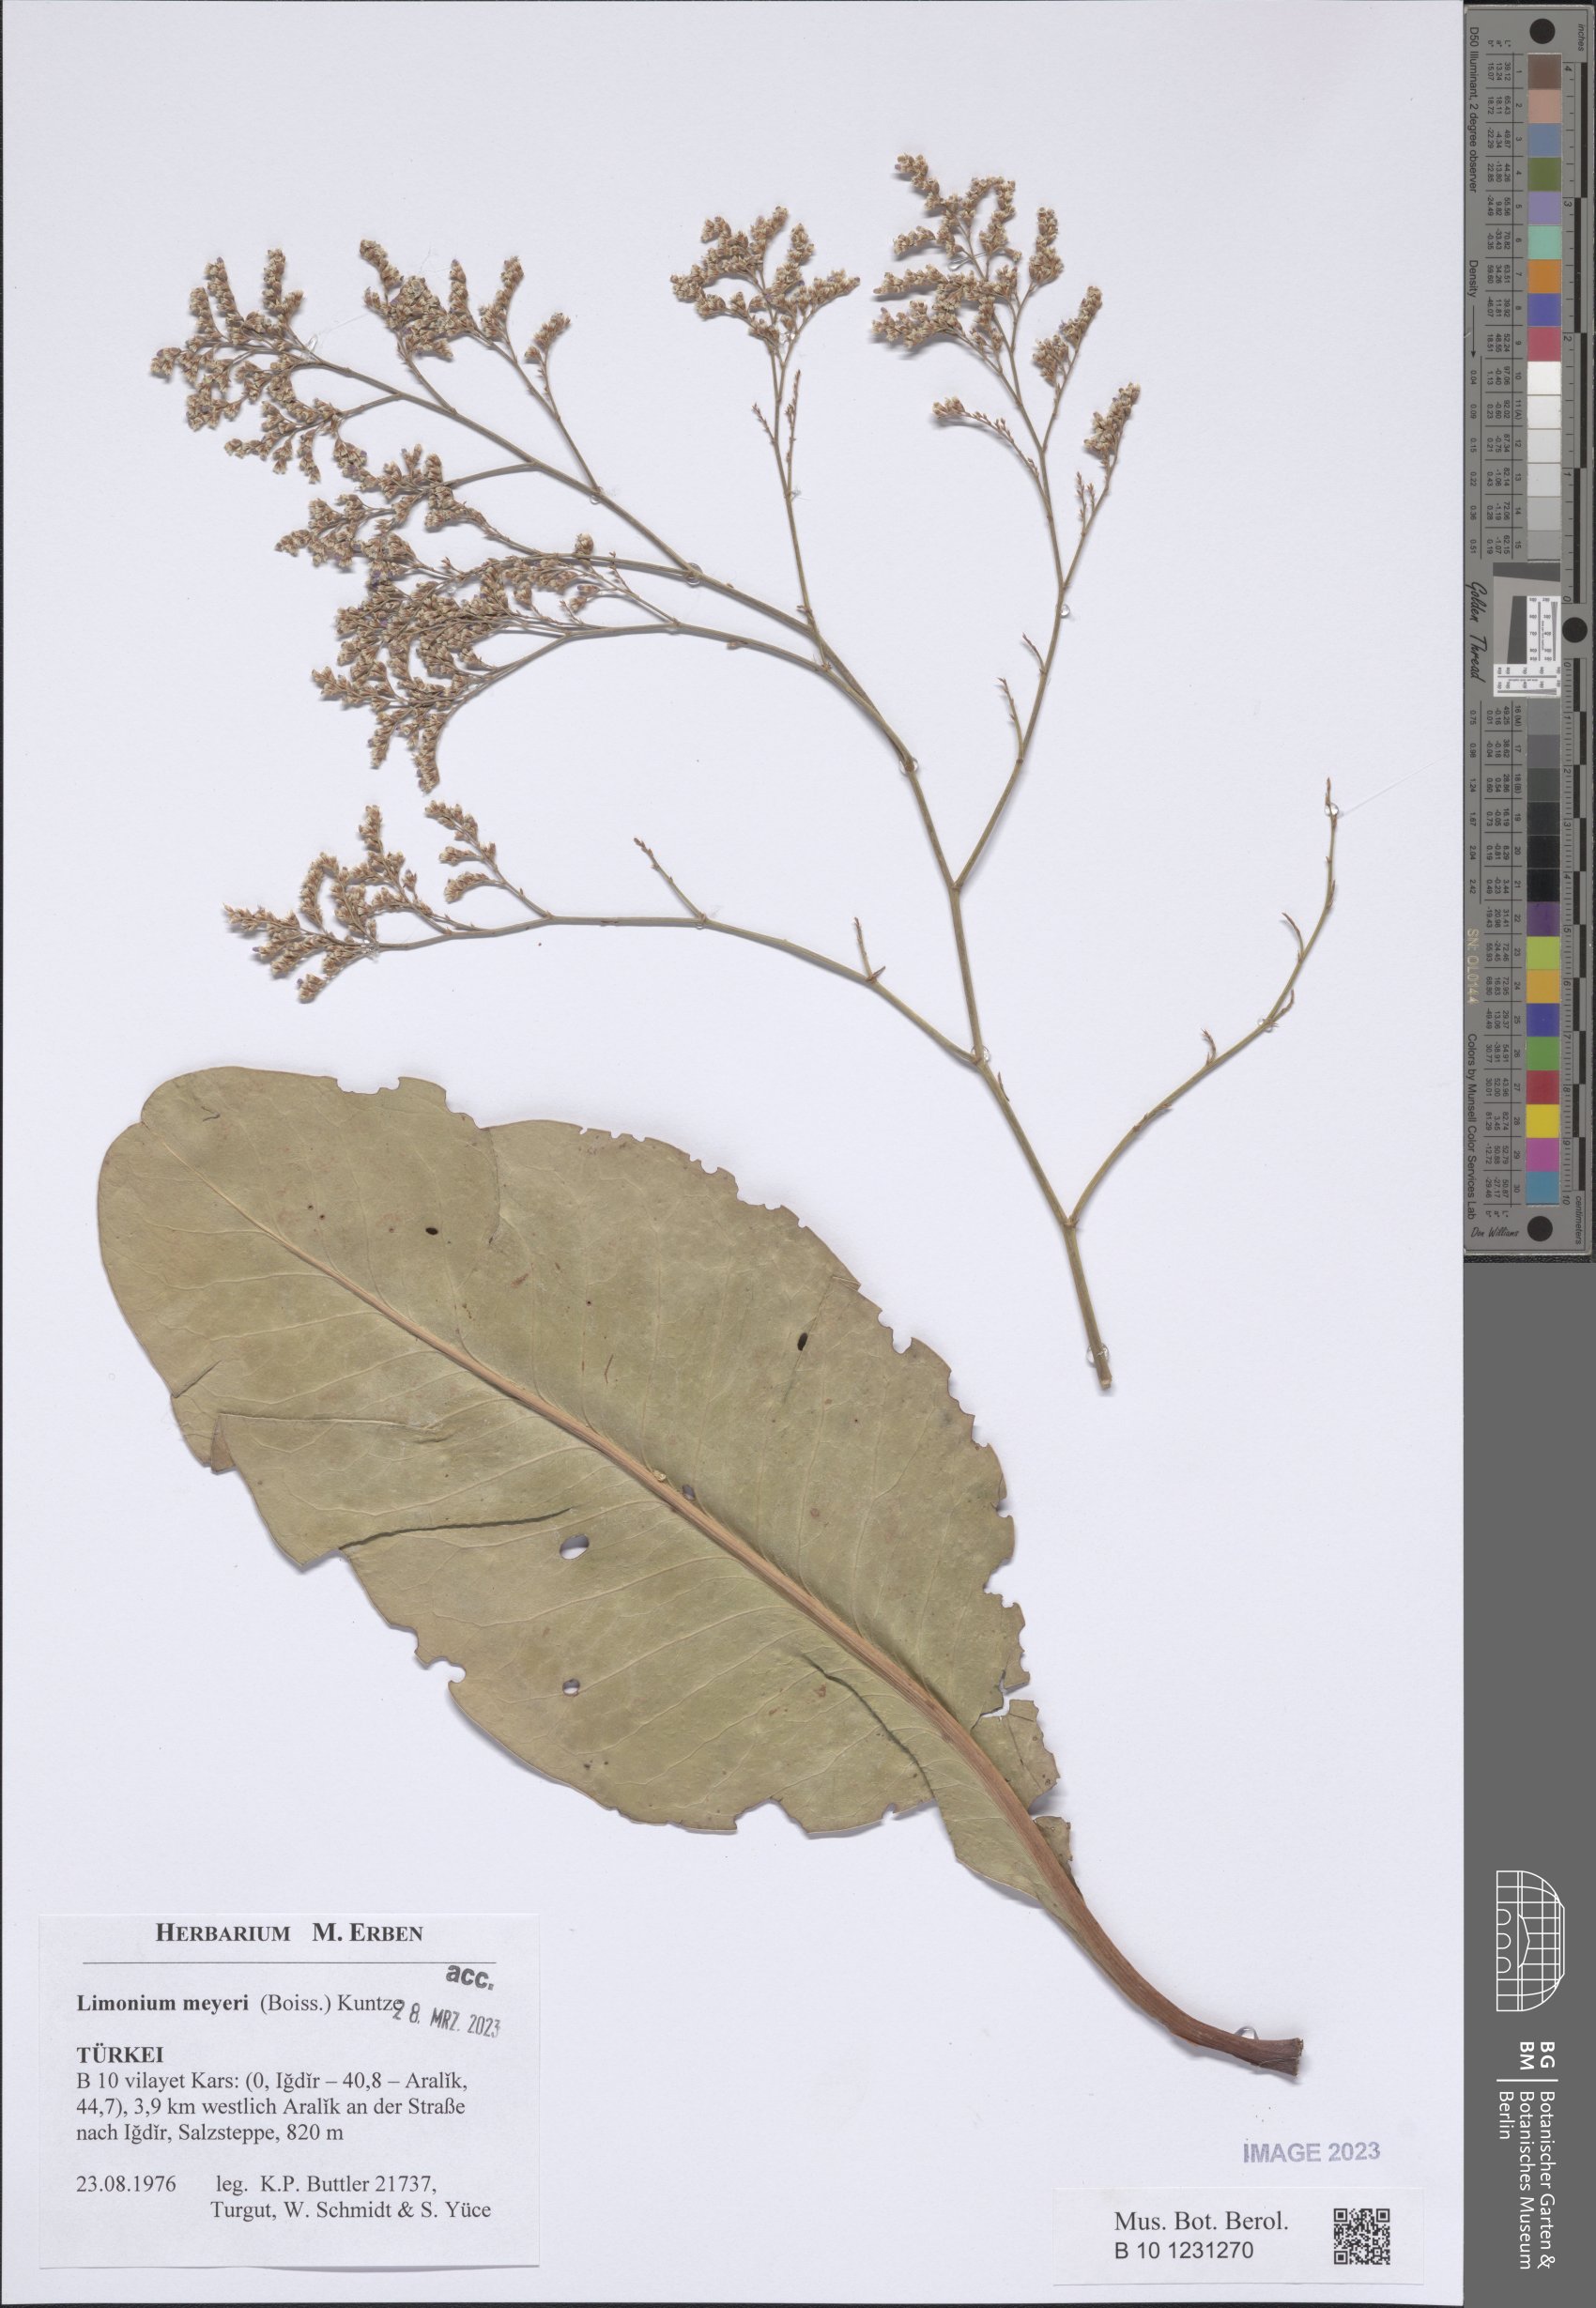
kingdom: Plantae
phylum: Tracheophyta
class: Magnoliopsida
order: Caryophyllales
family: Plumbaginaceae
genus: Limonium
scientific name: Limonium scoparium
